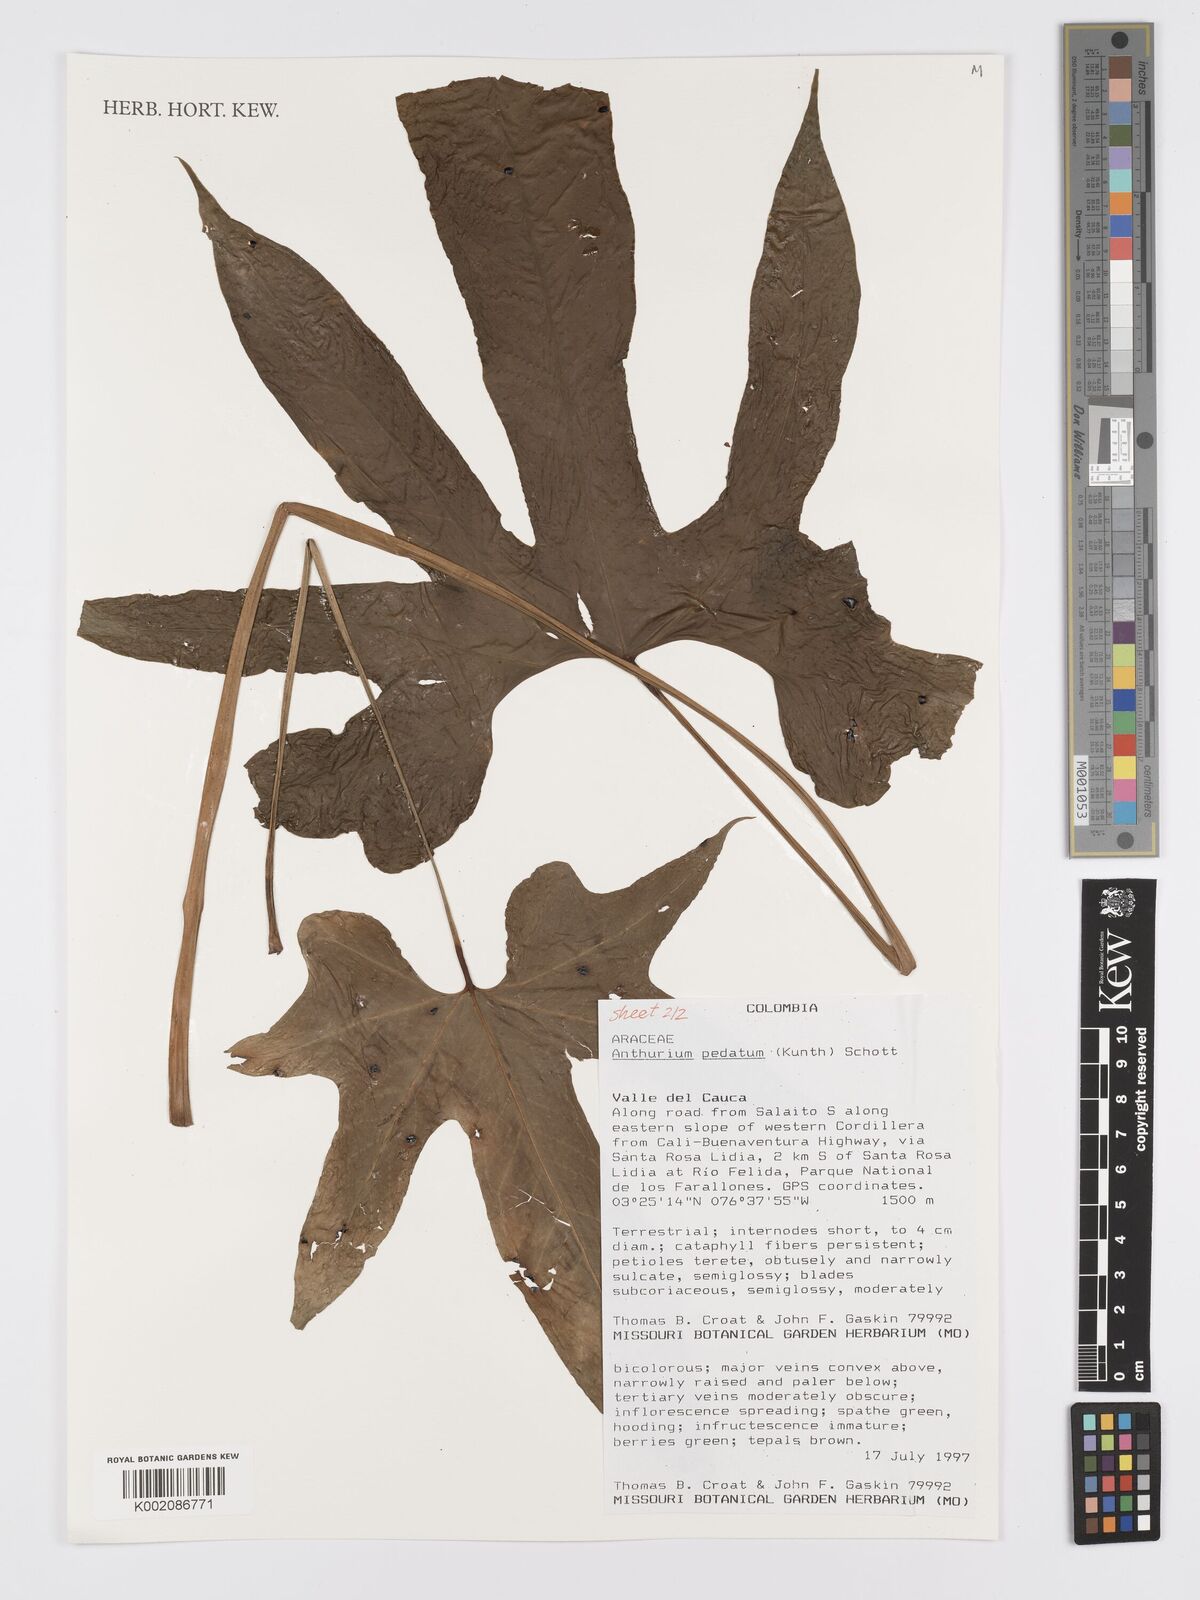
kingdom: Plantae
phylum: Tracheophyta
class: Liliopsida
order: Alismatales
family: Araceae
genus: Anthurium
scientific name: Anthurium pedatum
